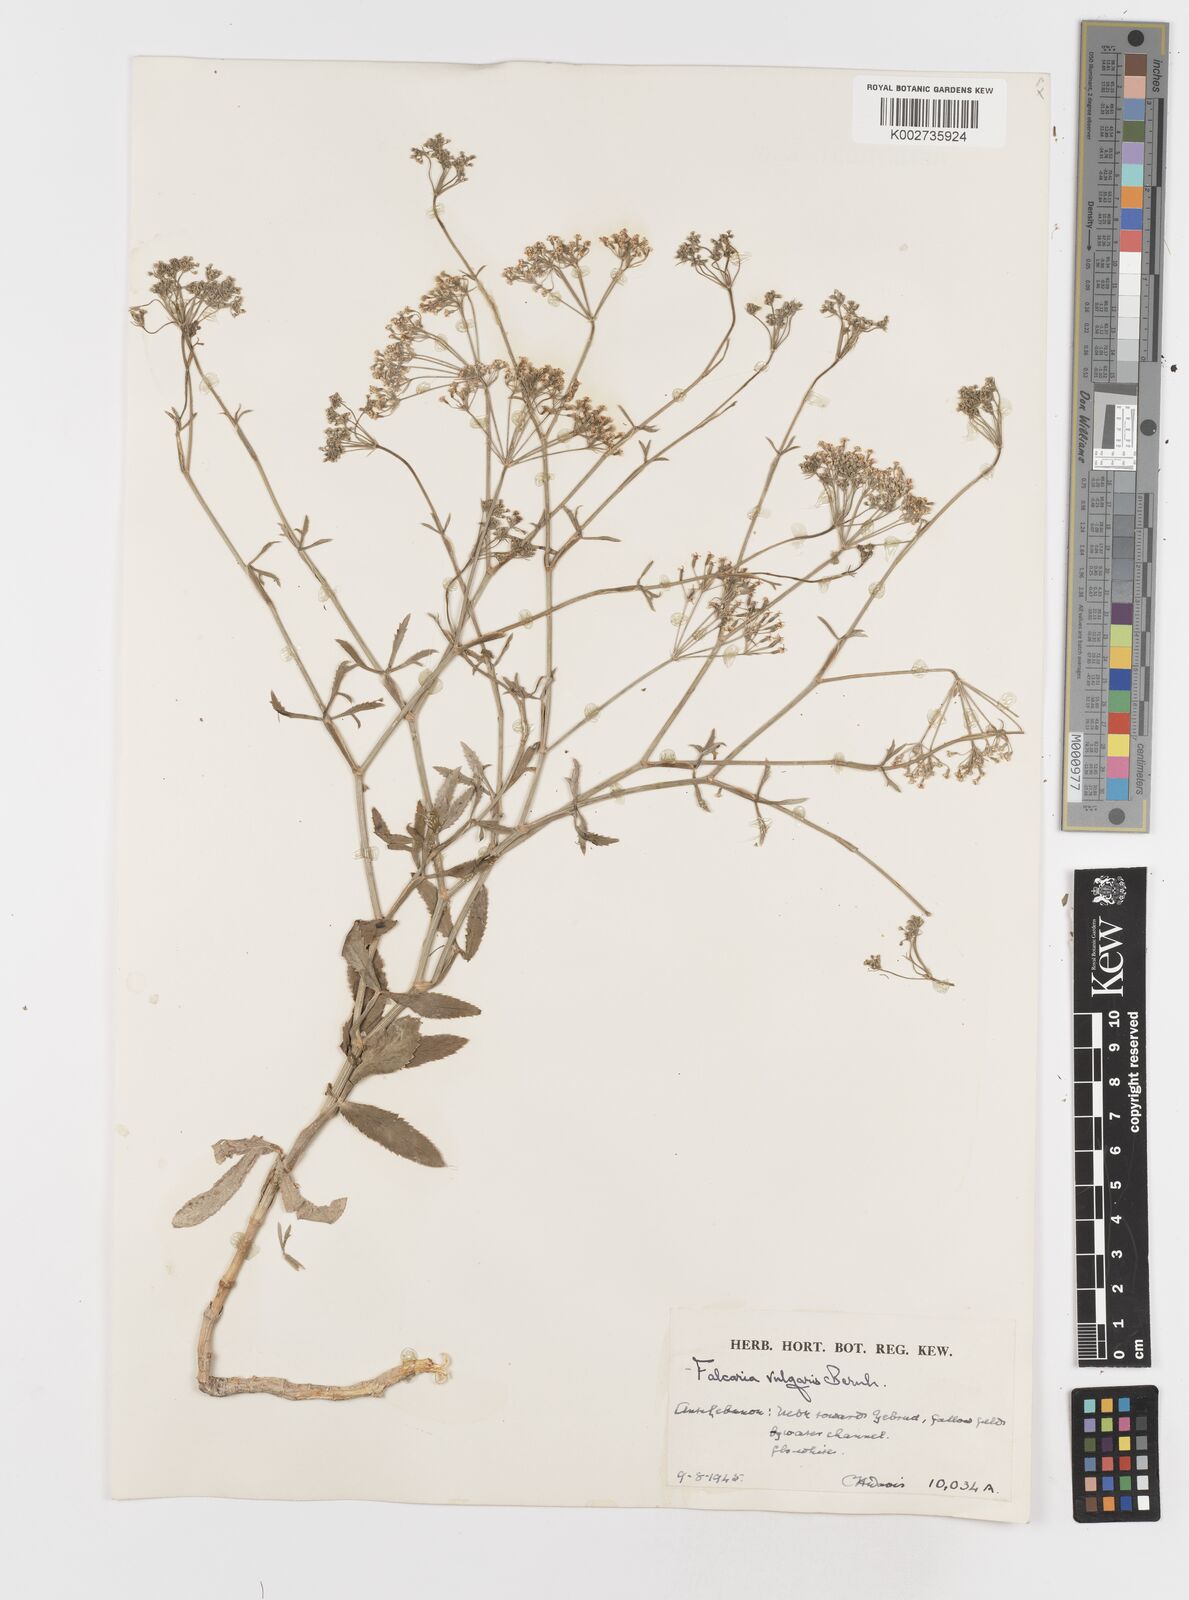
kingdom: Plantae
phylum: Tracheophyta
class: Magnoliopsida
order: Apiales
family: Apiaceae
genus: Falcaria
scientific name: Falcaria vulgaris
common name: Longleaf
